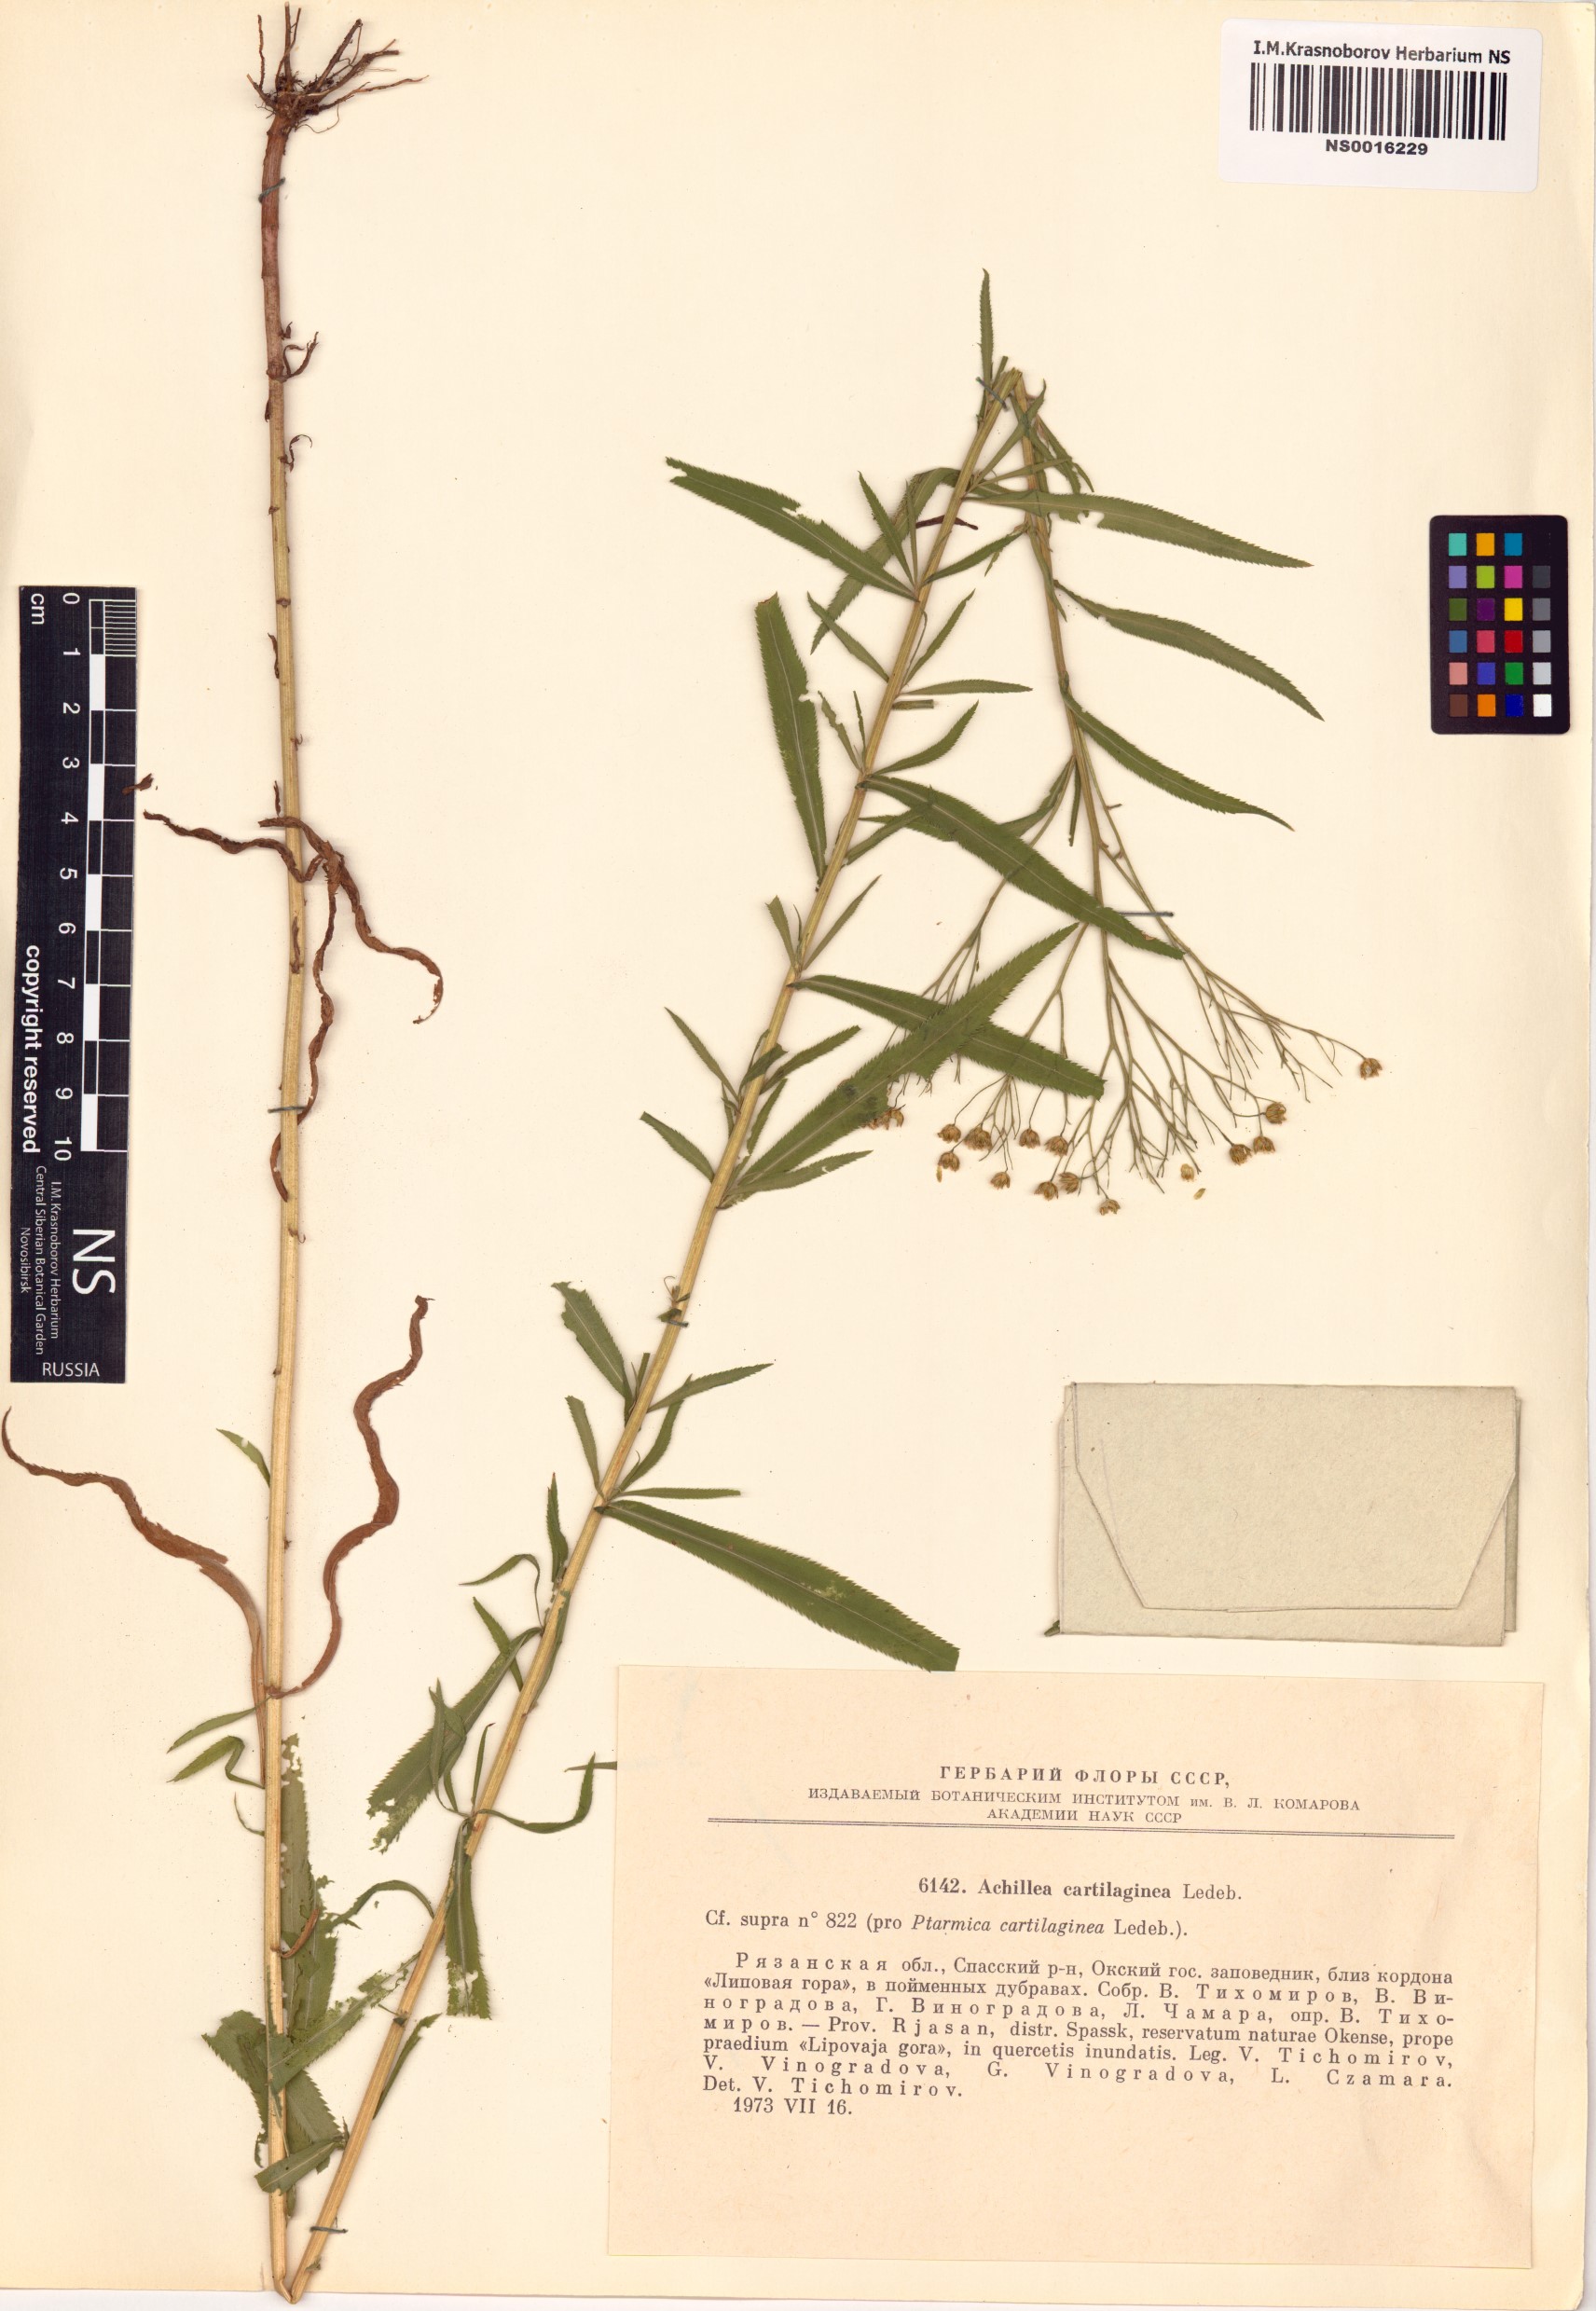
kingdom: Plantae
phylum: Tracheophyta
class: Magnoliopsida
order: Asterales
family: Asteraceae
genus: Achillea
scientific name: Achillea salicifolia
